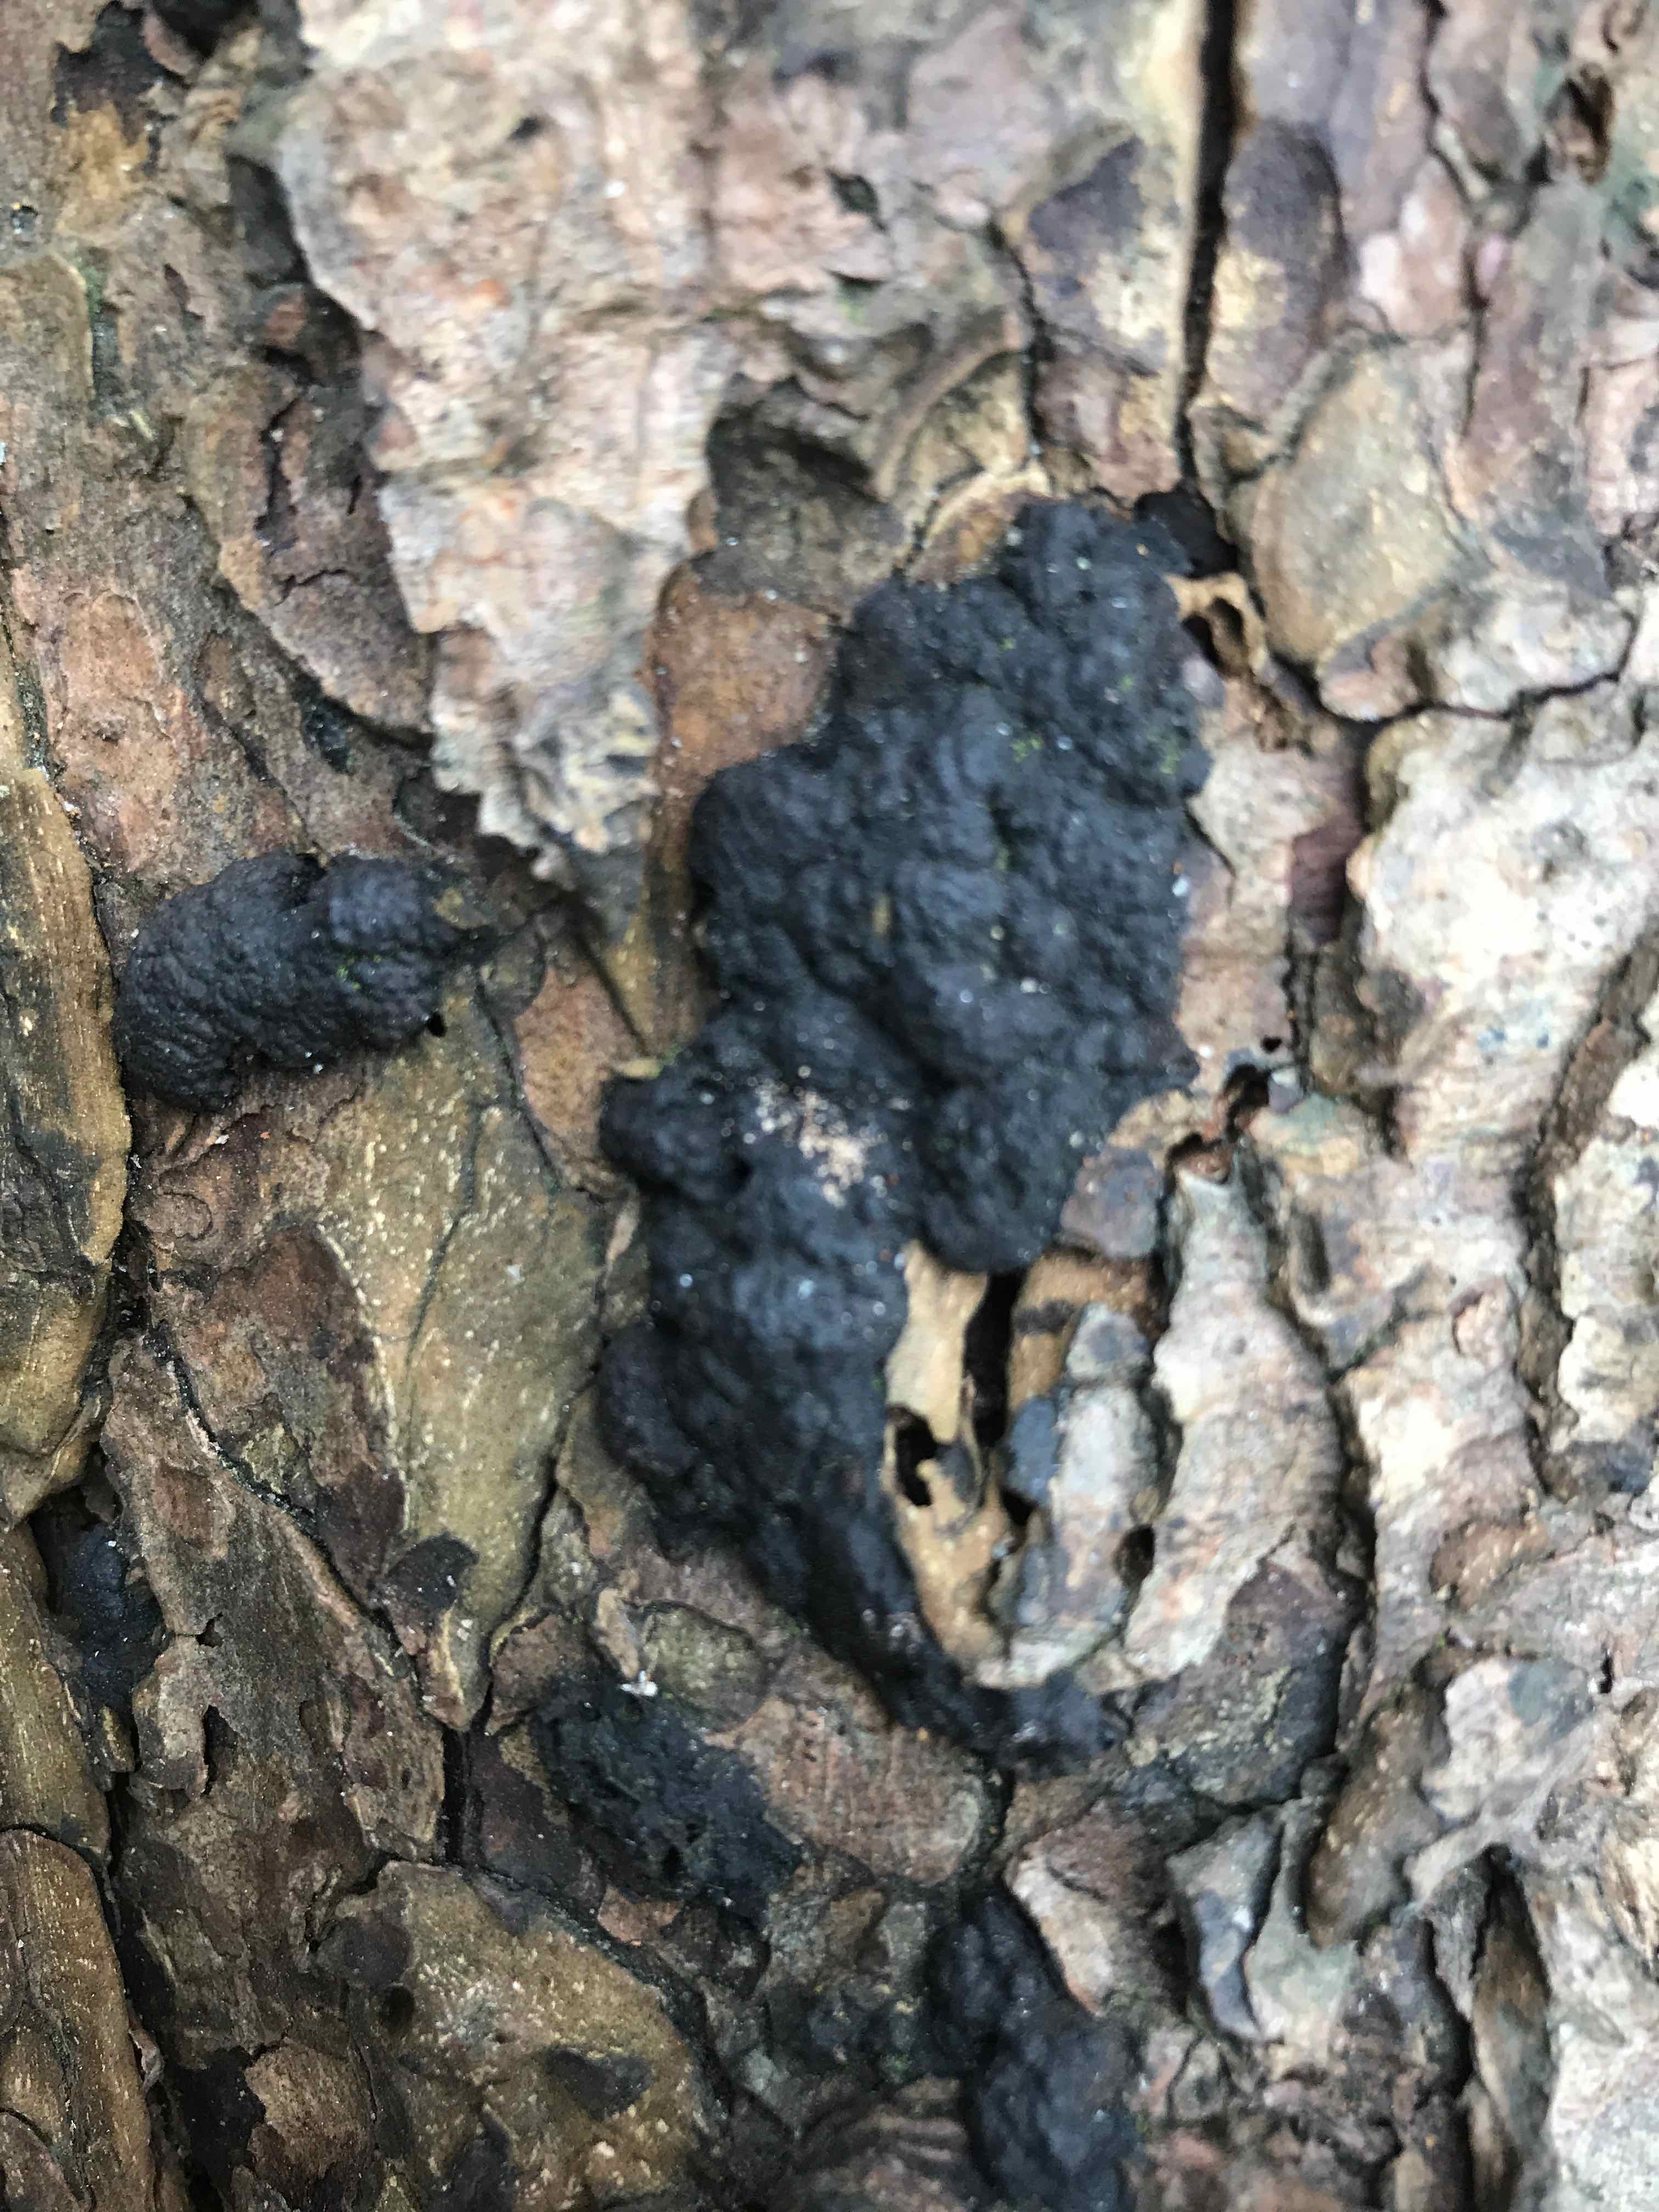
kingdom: Fungi
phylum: Ascomycota
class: Sordariomycetes
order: Xylariales
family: Hypoxylaceae
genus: Jackrogersella
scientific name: Jackrogersella multiformis
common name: foranderlig kulbær
